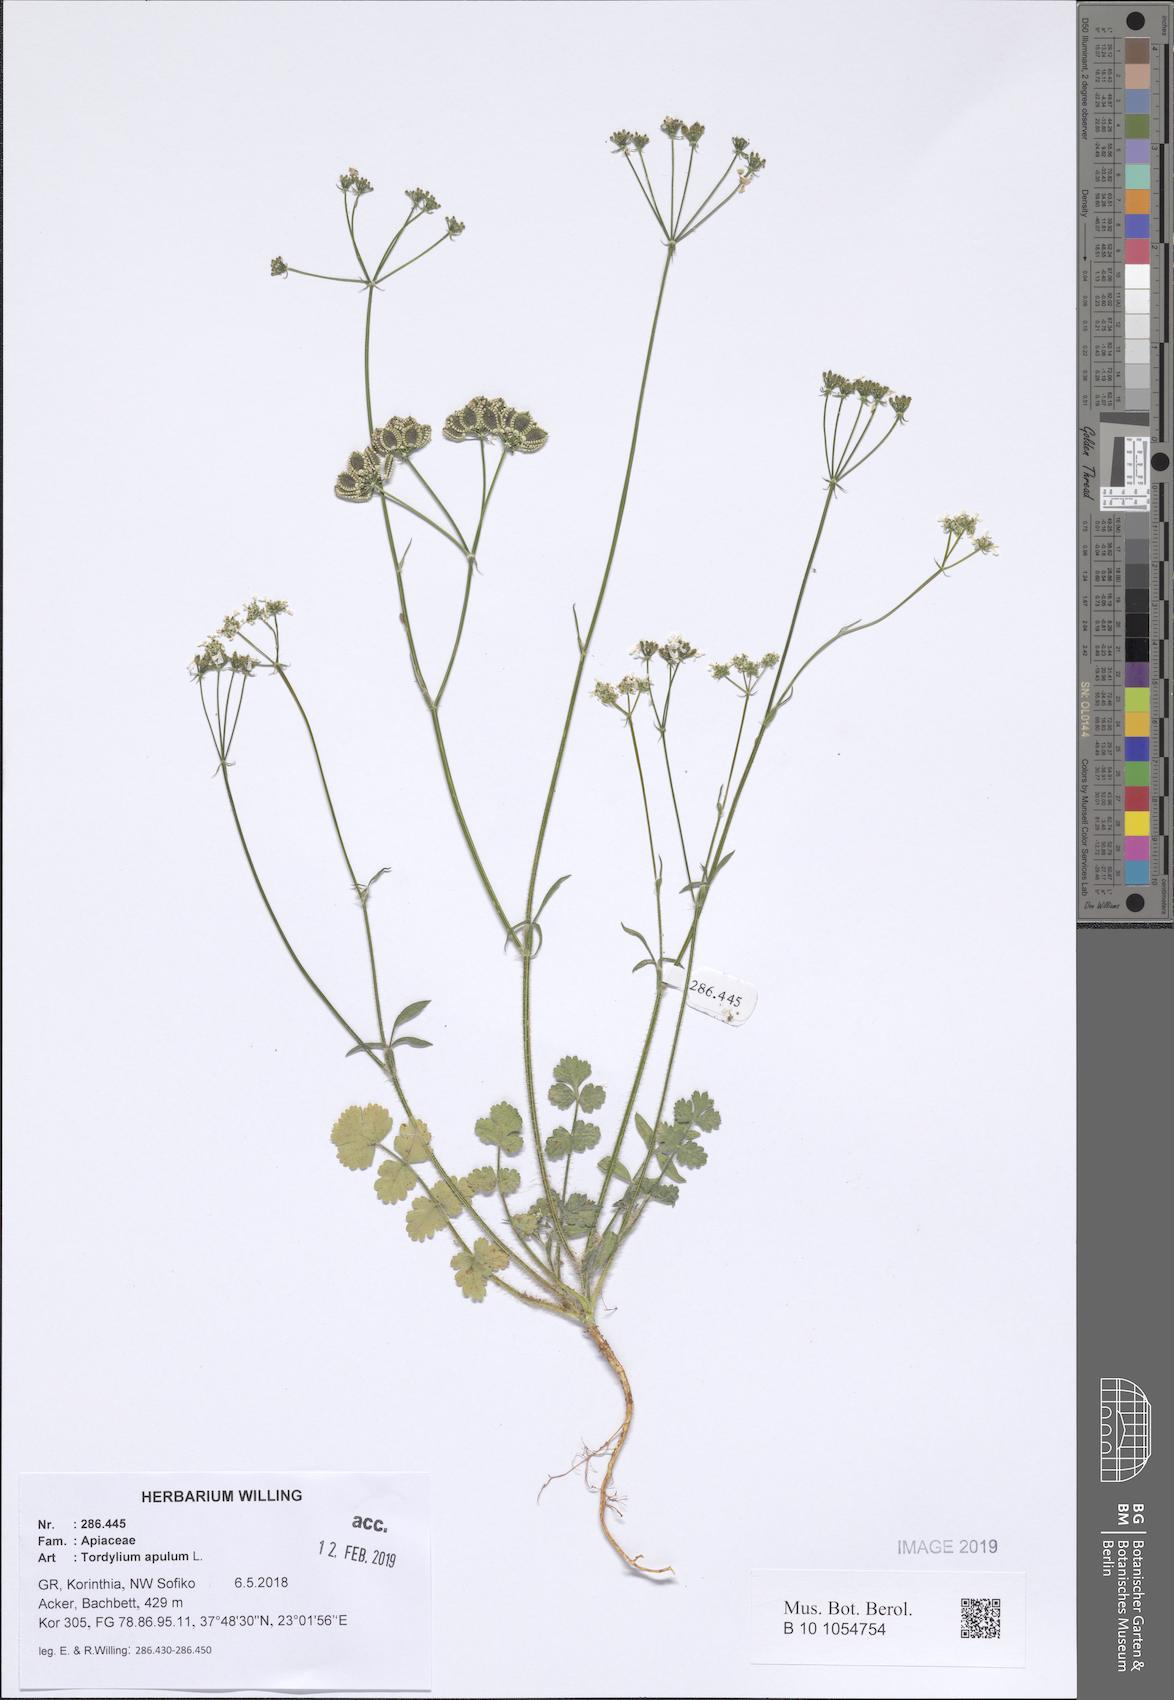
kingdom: Plantae
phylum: Tracheophyta
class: Magnoliopsida
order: Apiales
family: Apiaceae
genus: Tordylium
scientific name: Tordylium apulum
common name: Mediterranean hartwort
